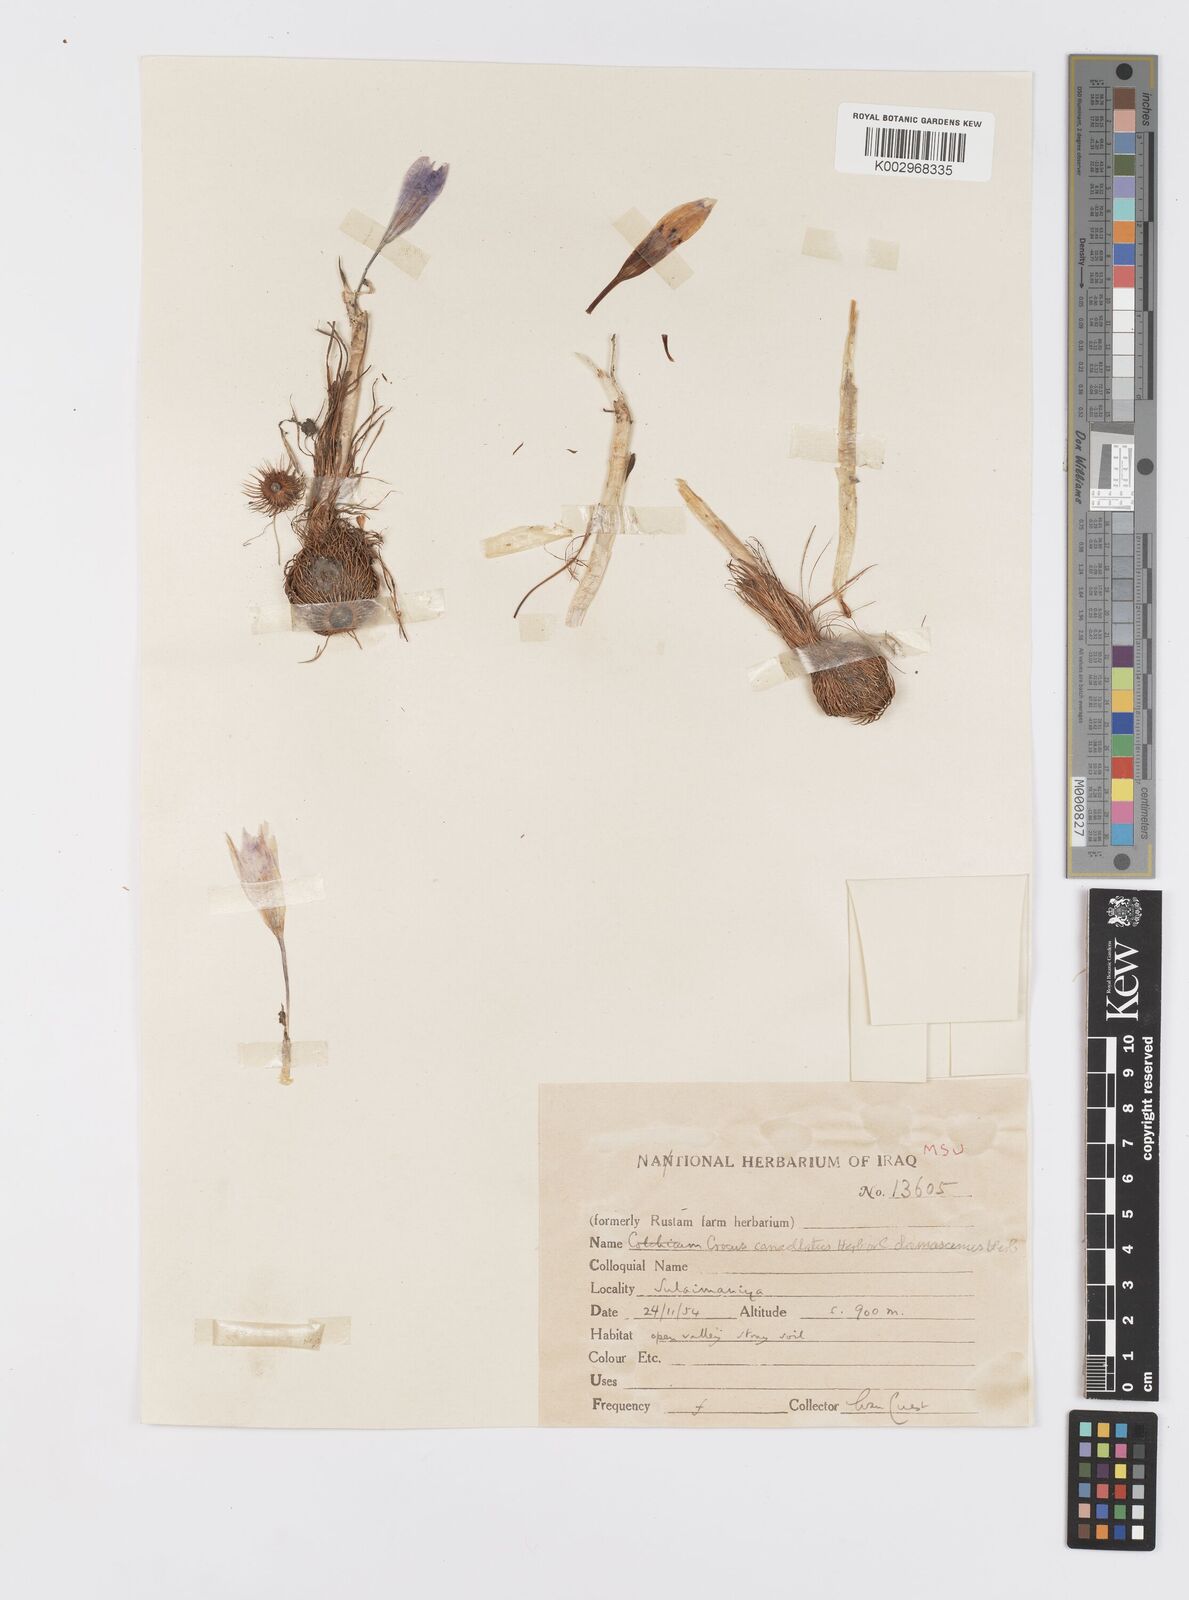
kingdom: Plantae
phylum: Tracheophyta
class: Liliopsida
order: Asparagales
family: Iridaceae
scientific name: Iridaceae
